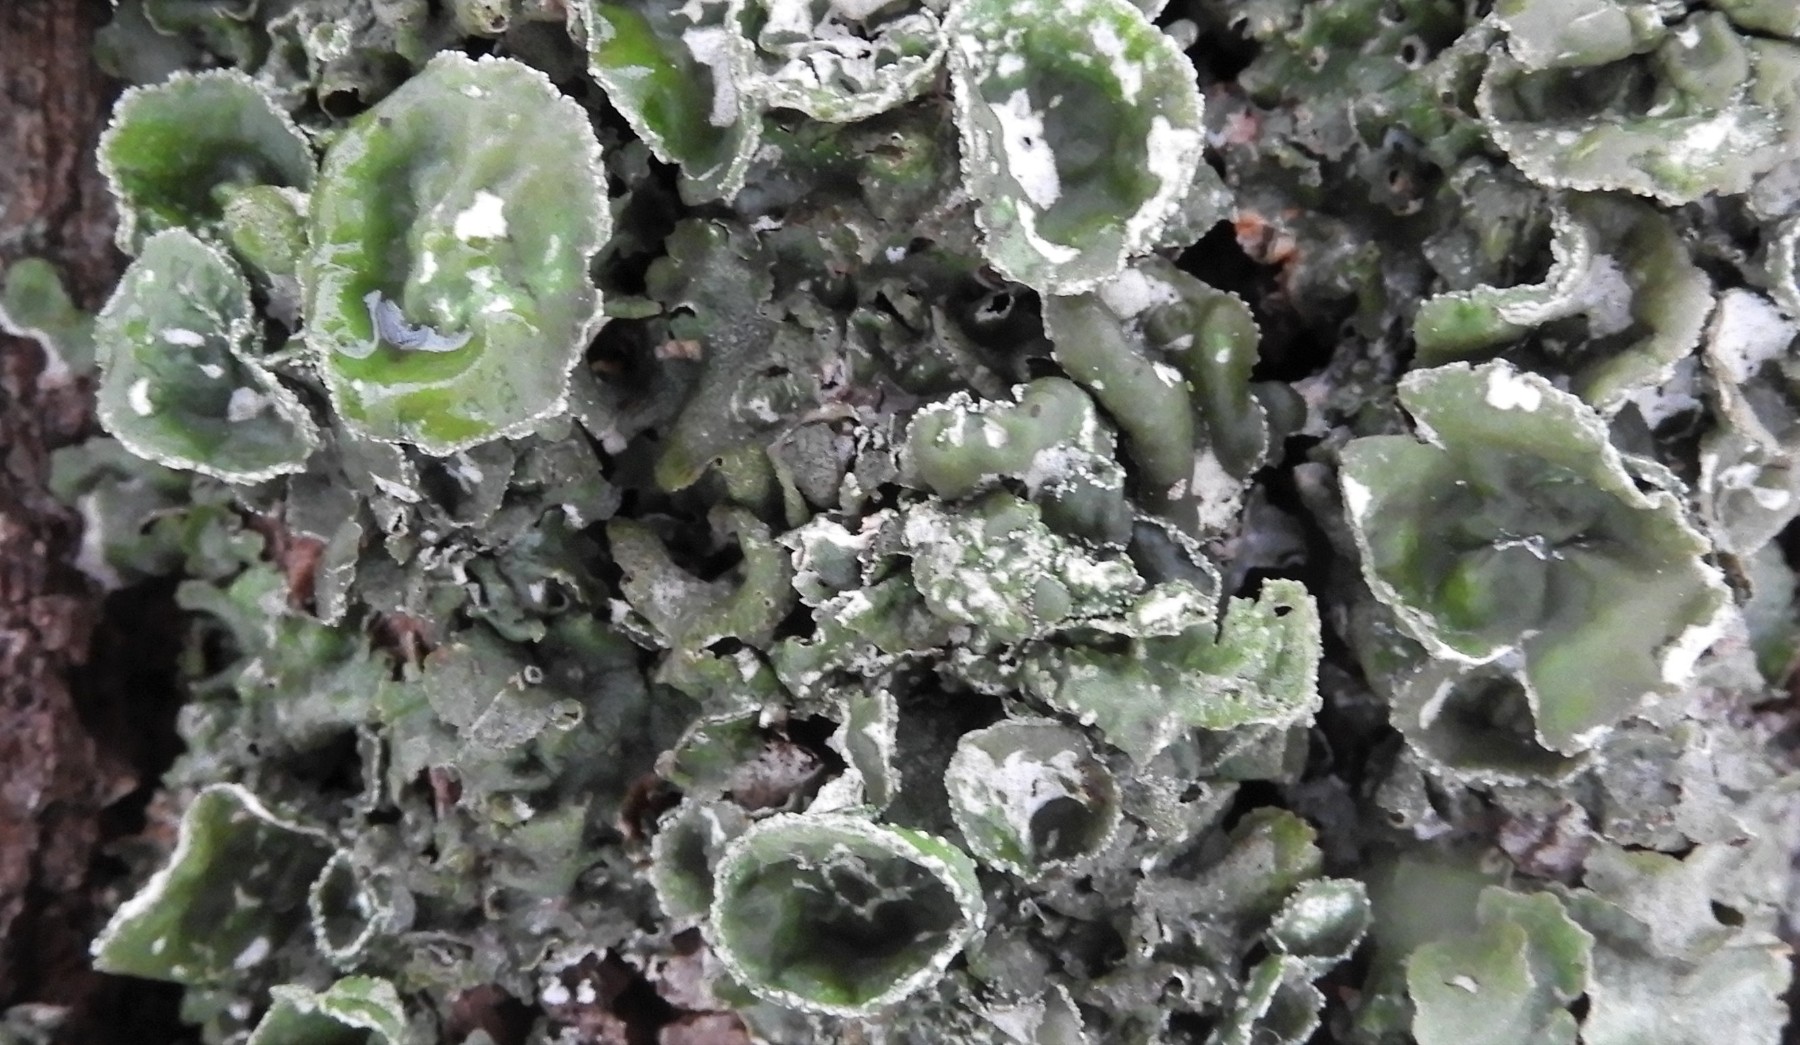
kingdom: Fungi
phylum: Ascomycota
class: Lecanoromycetes
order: Lecanorales
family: Parmeliaceae
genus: Pleurosticta
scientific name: Pleurosticta acetabulum
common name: stor skållav
